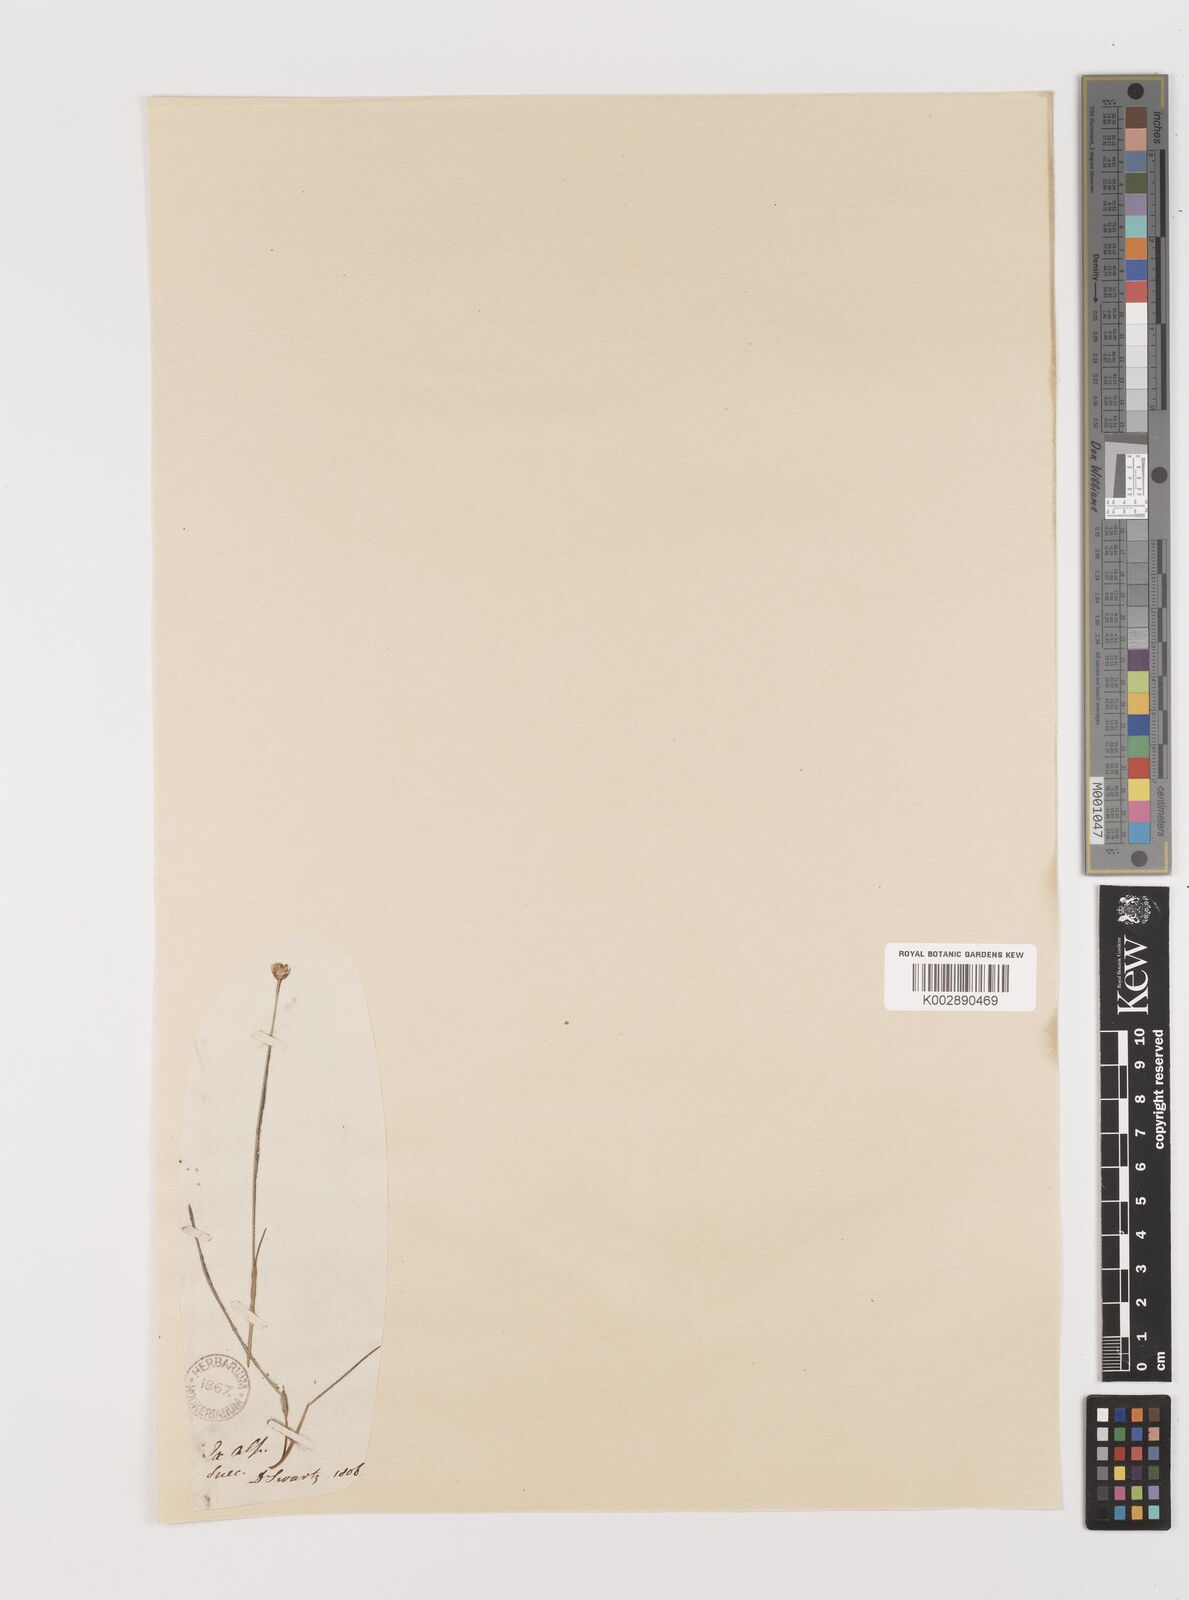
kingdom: Plantae
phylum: Tracheophyta
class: Liliopsida
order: Poales
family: Juncaceae
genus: Juncus
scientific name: Juncus triglumis
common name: Three-flowered rush
